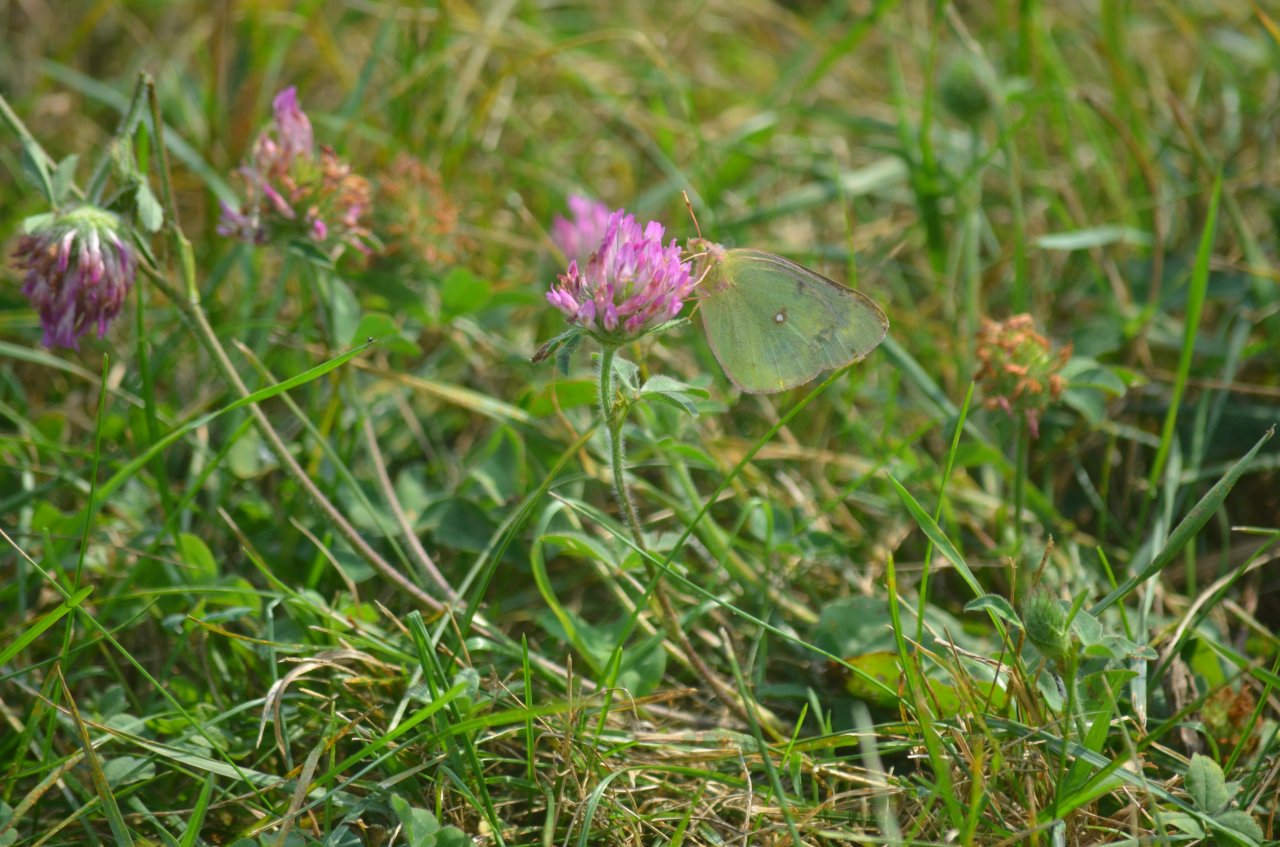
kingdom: Animalia
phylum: Arthropoda
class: Insecta
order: Lepidoptera
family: Pieridae
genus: Colias
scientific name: Colias philodice
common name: Clouded Sulphur
